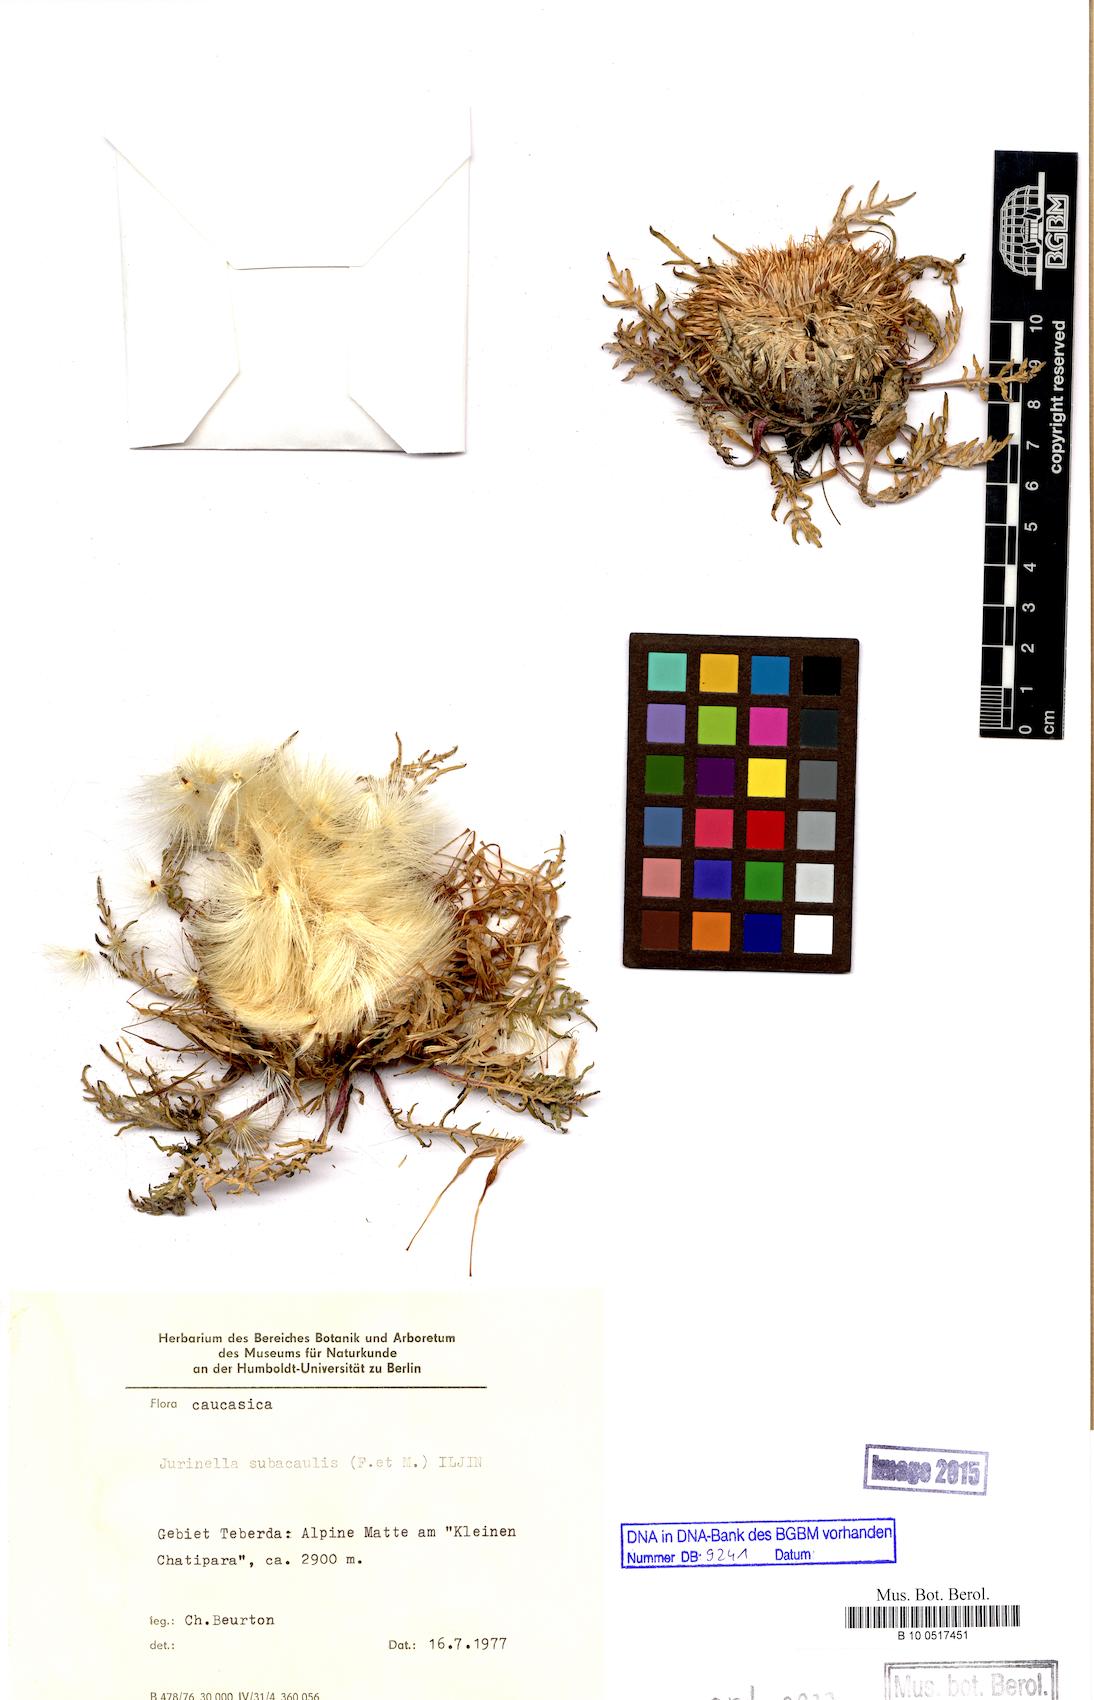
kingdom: Plantae
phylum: Tracheophyta
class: Magnoliopsida
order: Asterales
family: Asteraceae
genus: Jurinea
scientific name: Jurinea moschus
